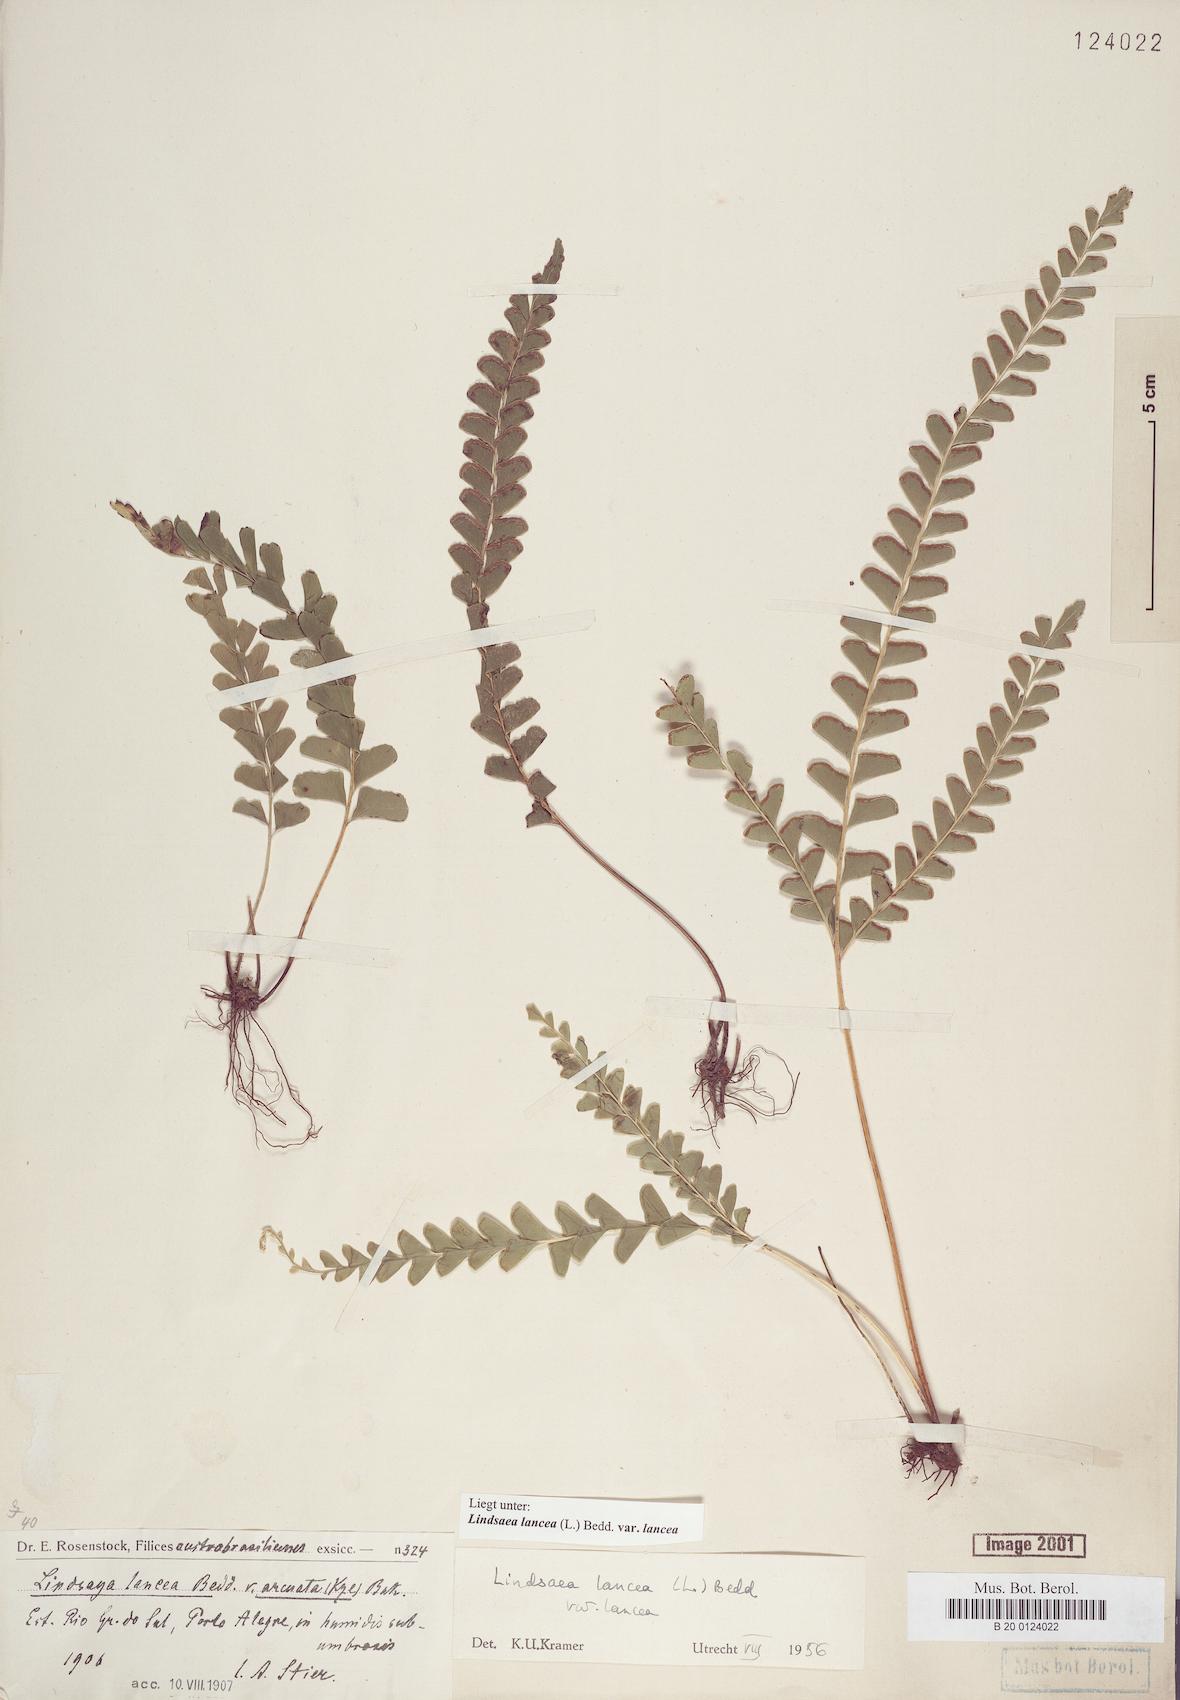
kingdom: Plantae
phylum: Tracheophyta
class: Polypodiopsida
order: Polypodiales
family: Lindsaeaceae
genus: Lindsaea
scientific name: Lindsaea lancea
